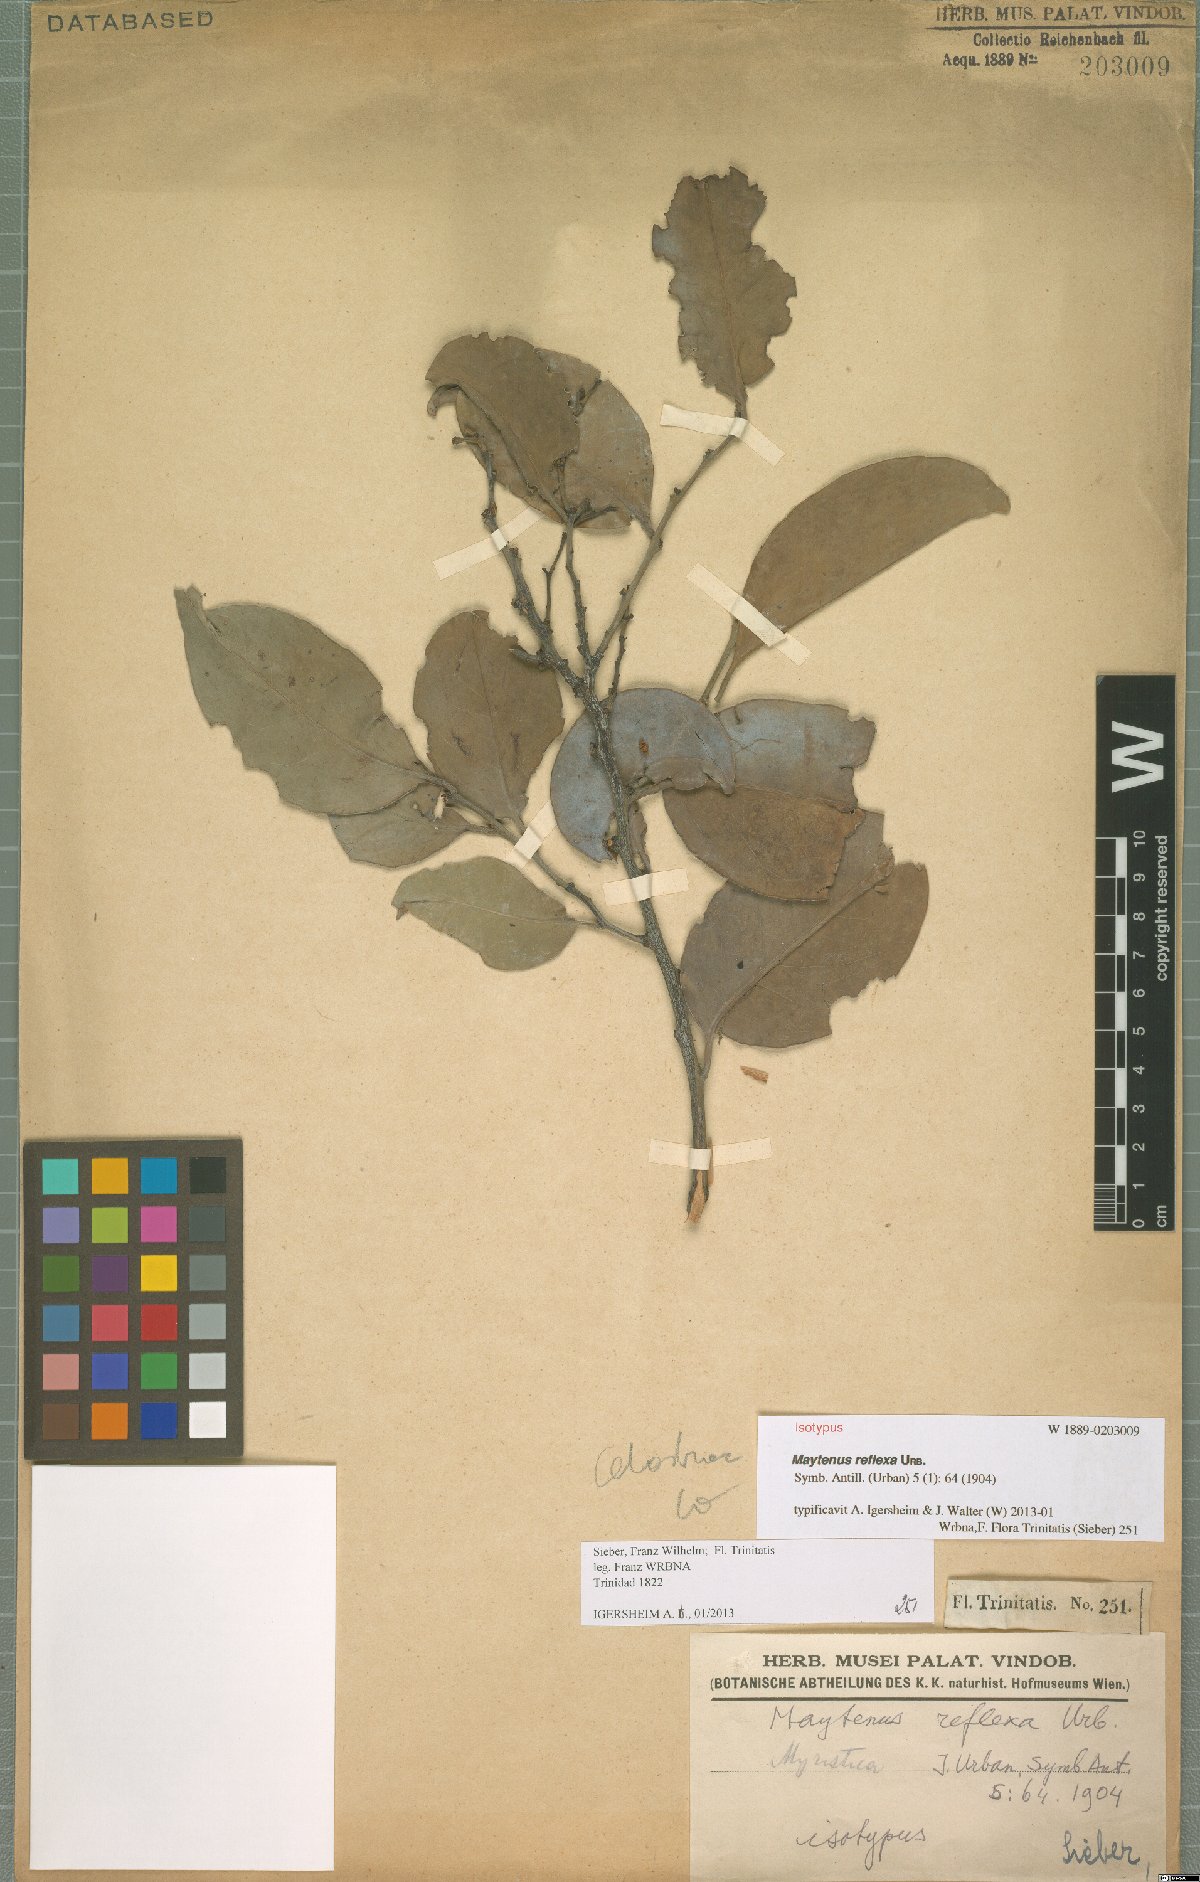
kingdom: Plantae
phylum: Tracheophyta
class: Magnoliopsida
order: Celastrales
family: Celastraceae
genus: Monteverdia
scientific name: Monteverdia reflexa
